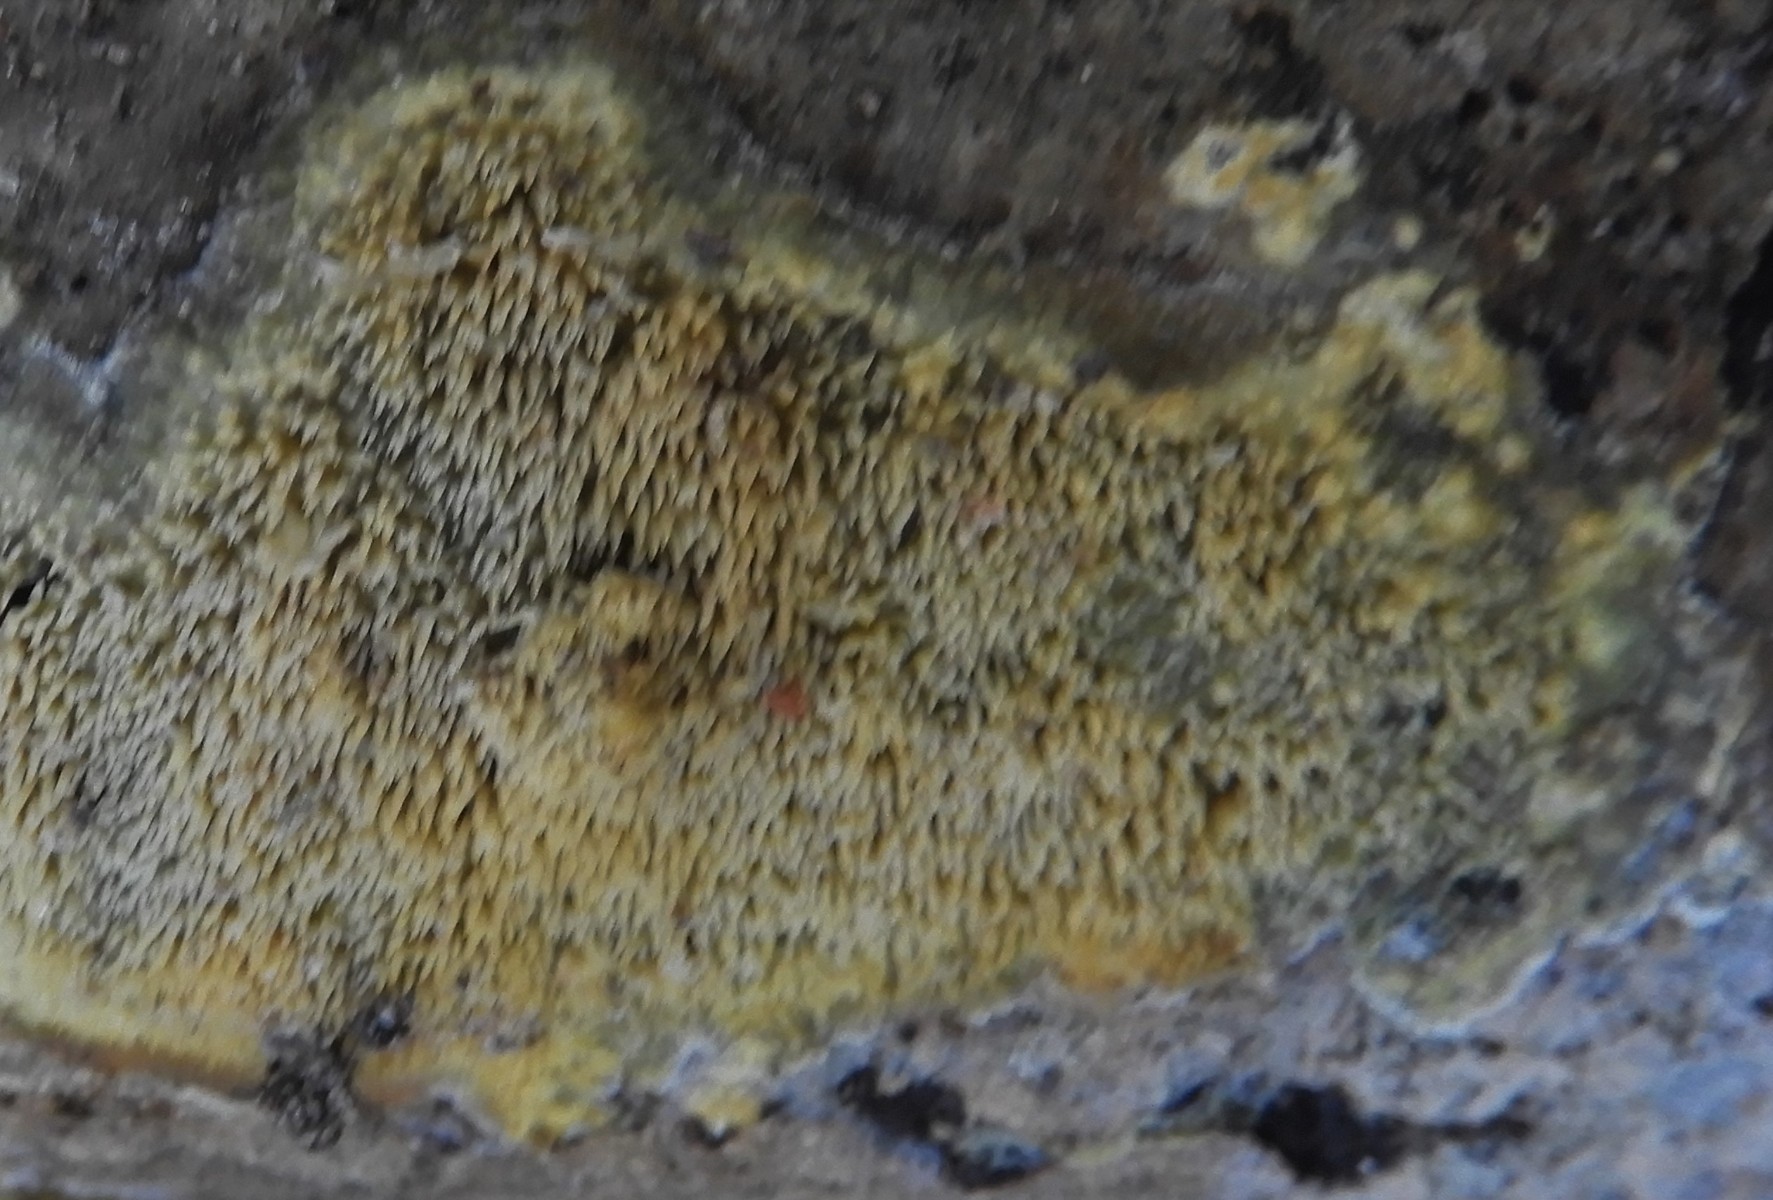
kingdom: Fungi
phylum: Basidiomycota
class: Agaricomycetes
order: Polyporales
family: Meruliaceae
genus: Mycoacia
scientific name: Mycoacia uda
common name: citrongul vokspig
